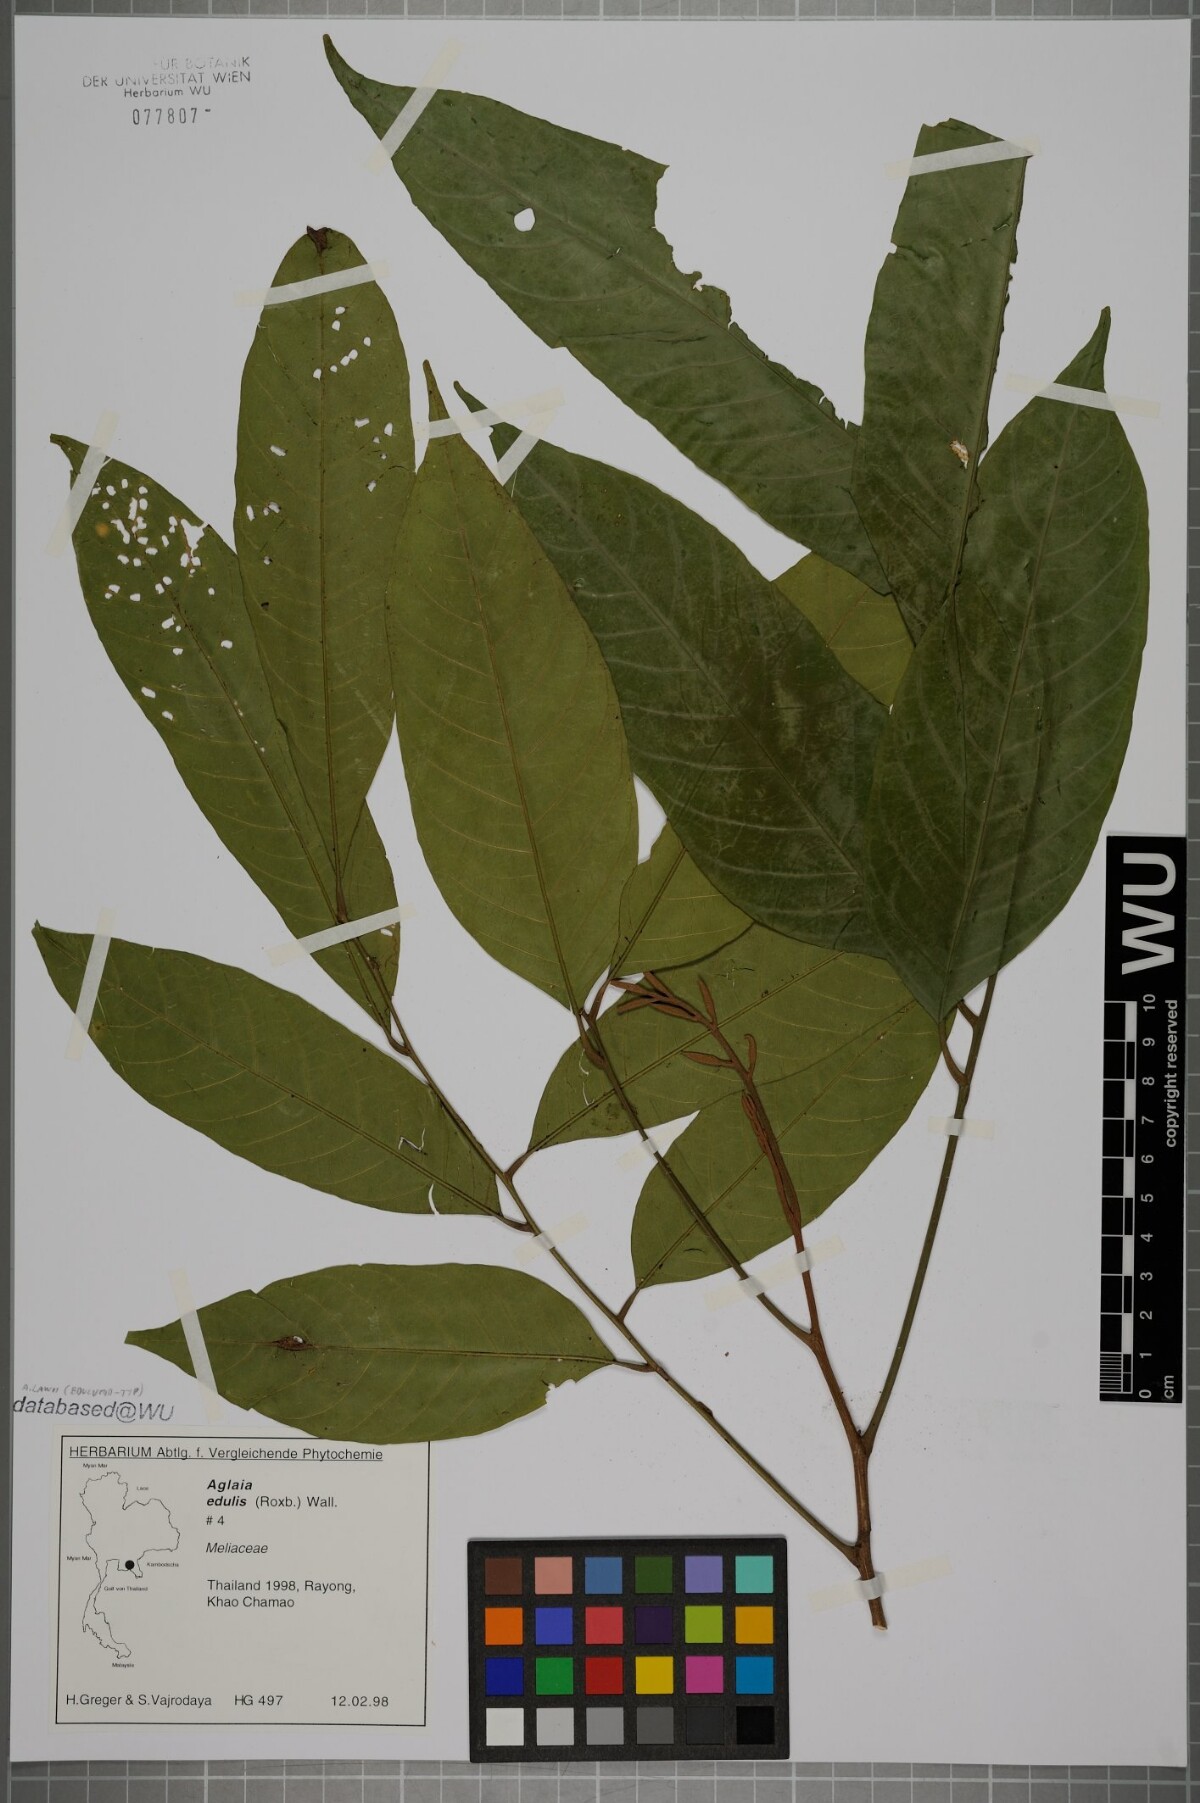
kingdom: Plantae
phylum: Tracheophyta
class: Magnoliopsida
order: Sapindales
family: Meliaceae
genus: Aglaia
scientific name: Aglaia lawii
